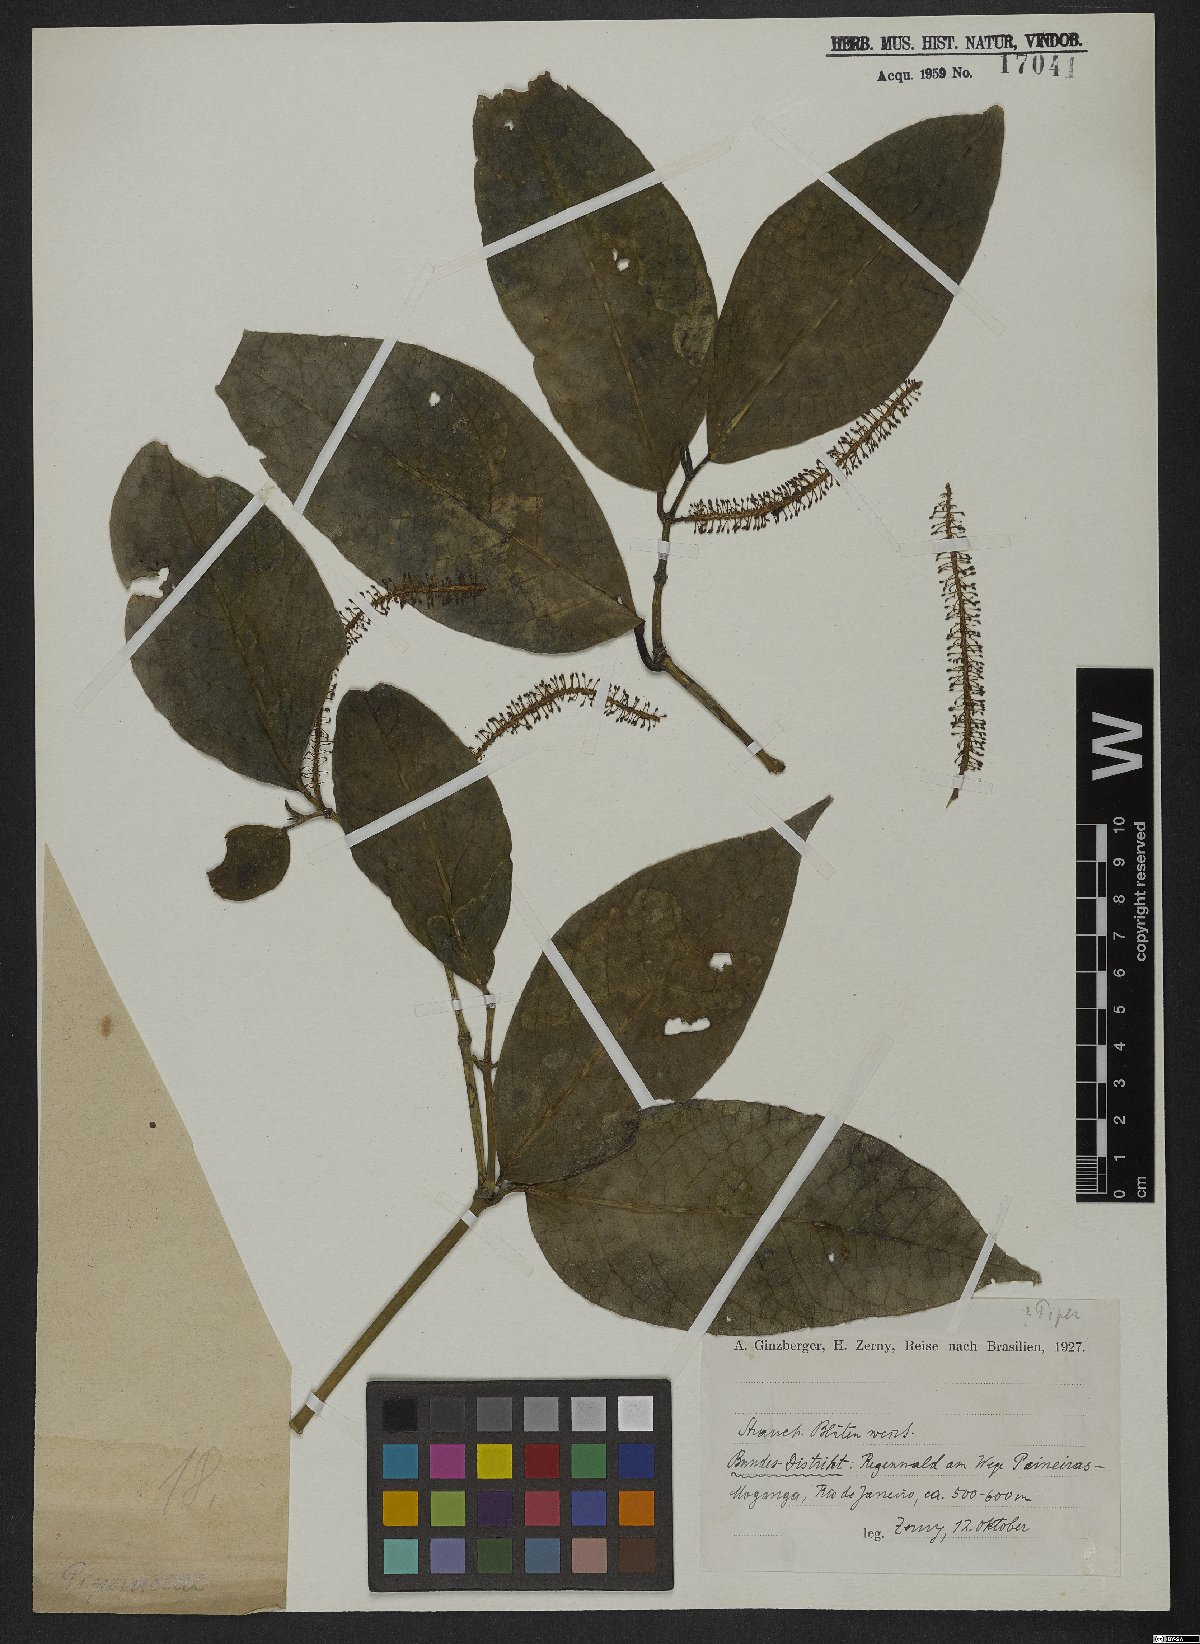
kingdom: Plantae
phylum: Tracheophyta
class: Magnoliopsida
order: Piperales
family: Piperaceae
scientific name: Piperaceae
